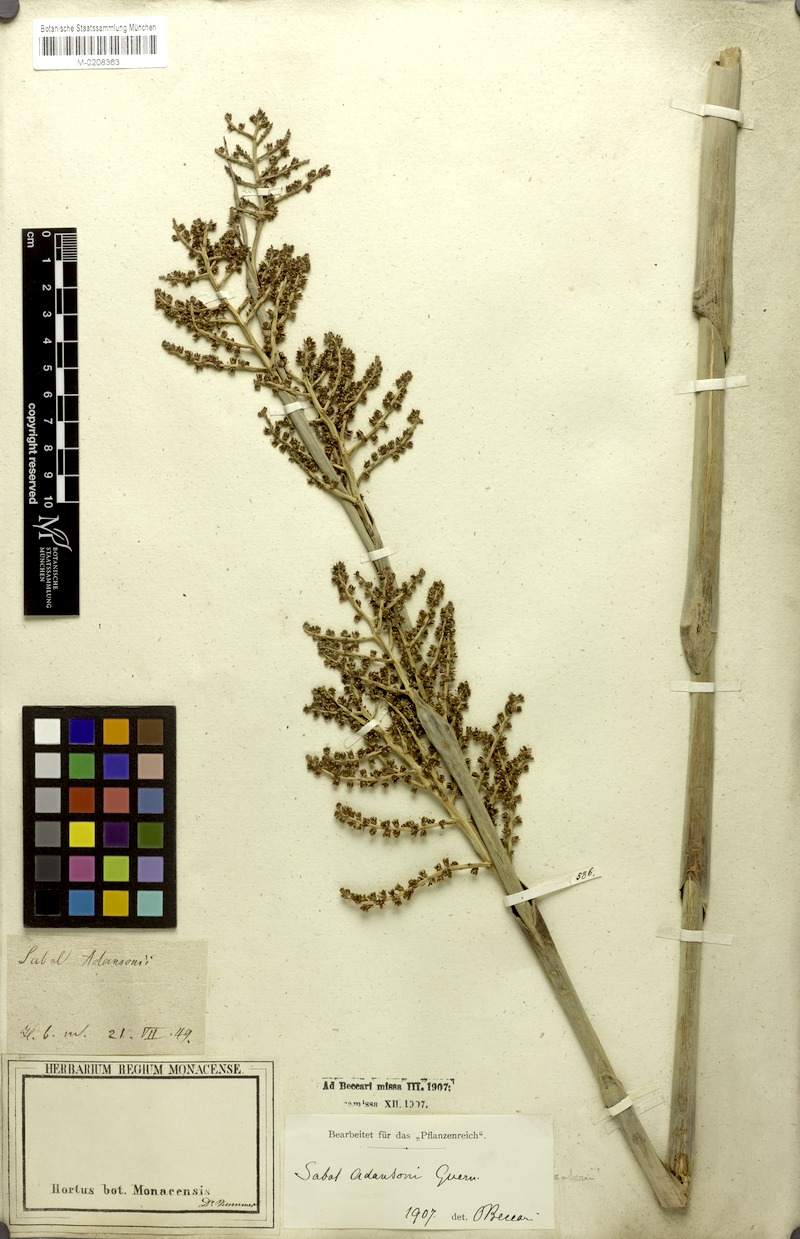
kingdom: Plantae
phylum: Tracheophyta
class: Liliopsida
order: Arecales
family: Arecaceae
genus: Sabal
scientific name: Sabal minor
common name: Dwarf palmetto
